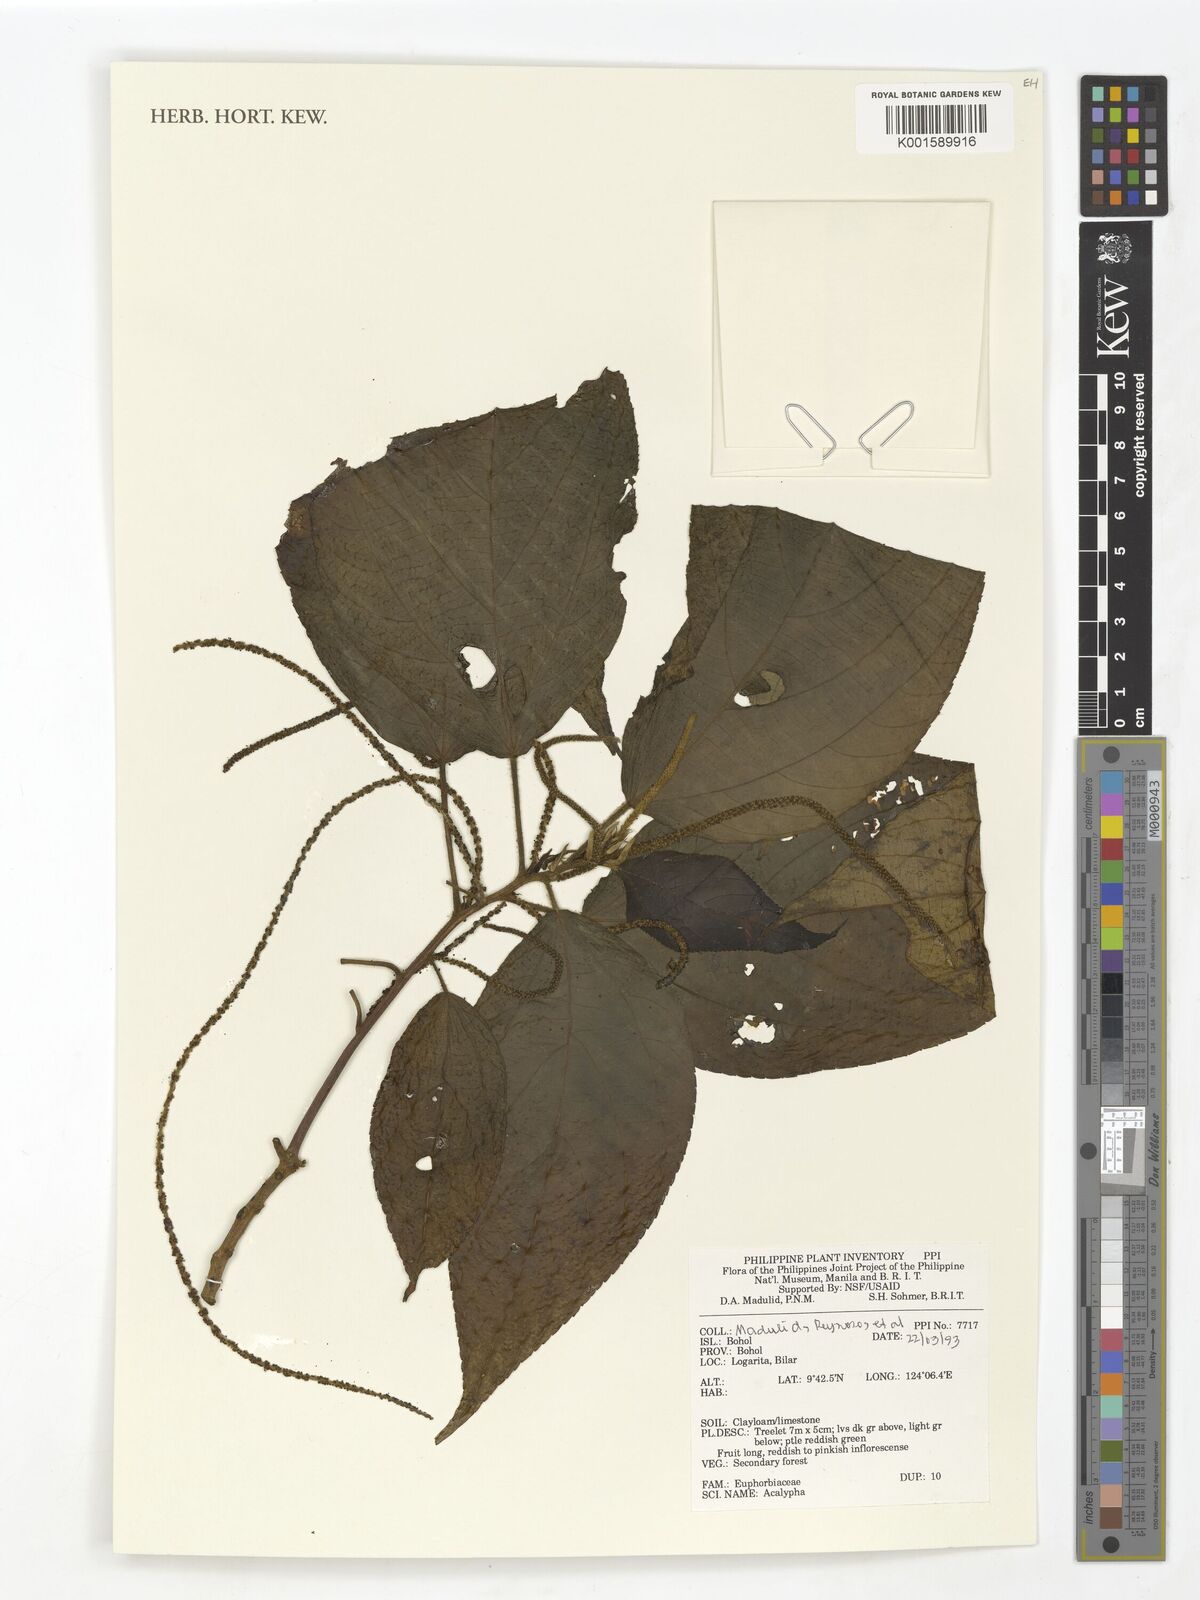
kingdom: Plantae
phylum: Tracheophyta
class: Magnoliopsida
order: Malpighiales
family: Euphorbiaceae
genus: Acalypha
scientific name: Acalypha
